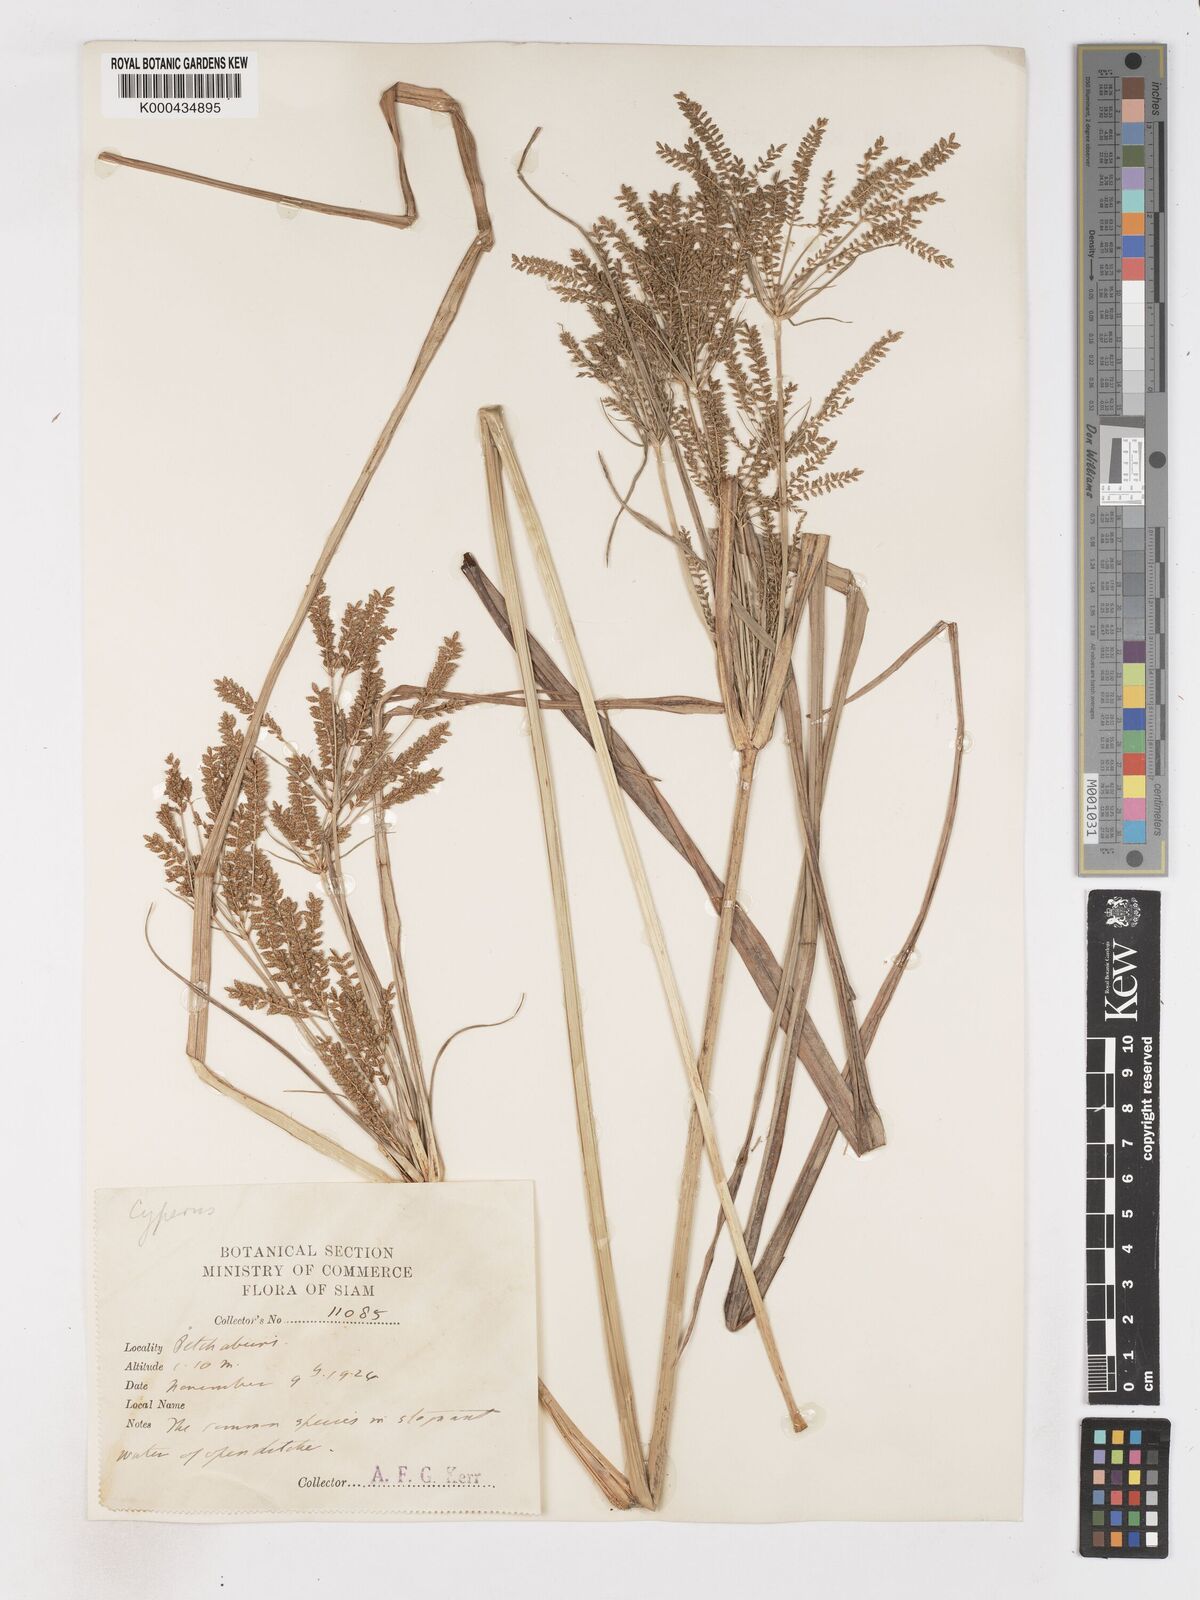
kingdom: Plantae
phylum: Tracheophyta
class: Liliopsida
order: Poales
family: Cyperaceae
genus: Cyperus
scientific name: Cyperus exaltatus
